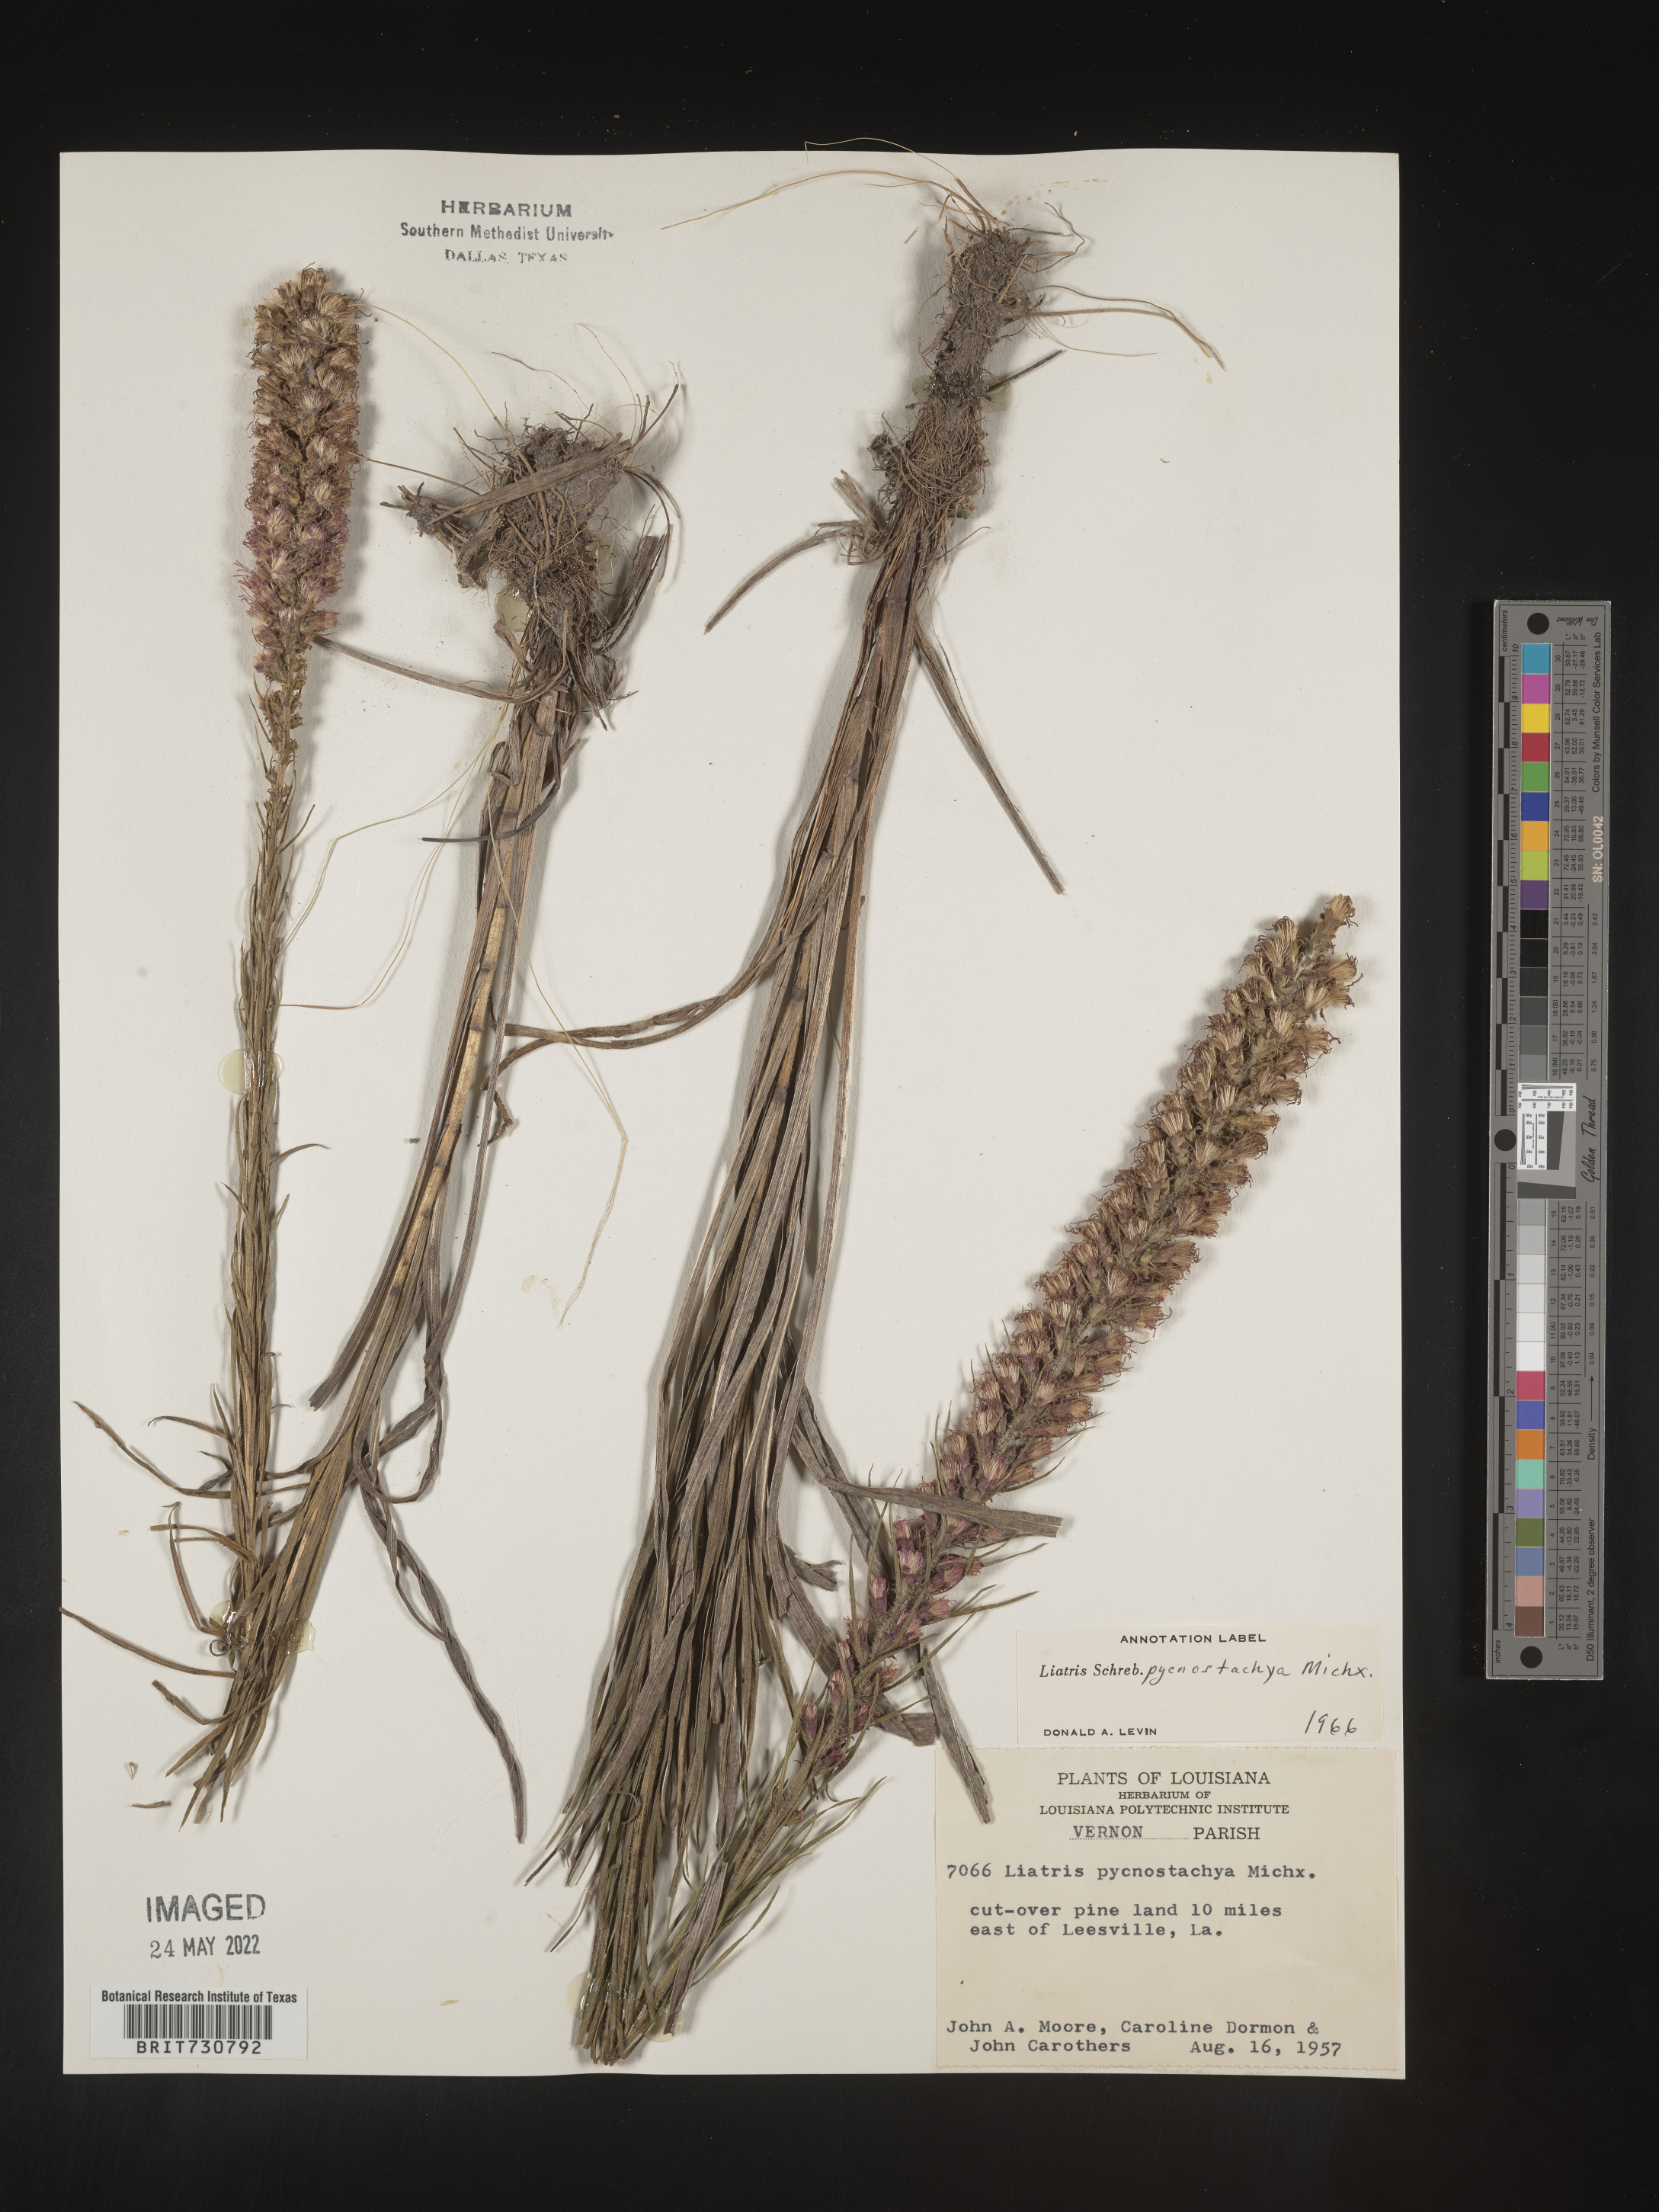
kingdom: Plantae
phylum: Tracheophyta
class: Magnoliopsida
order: Asterales
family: Asteraceae
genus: Liatris
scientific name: Liatris pycnostachya
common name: Cattail gayfeather
